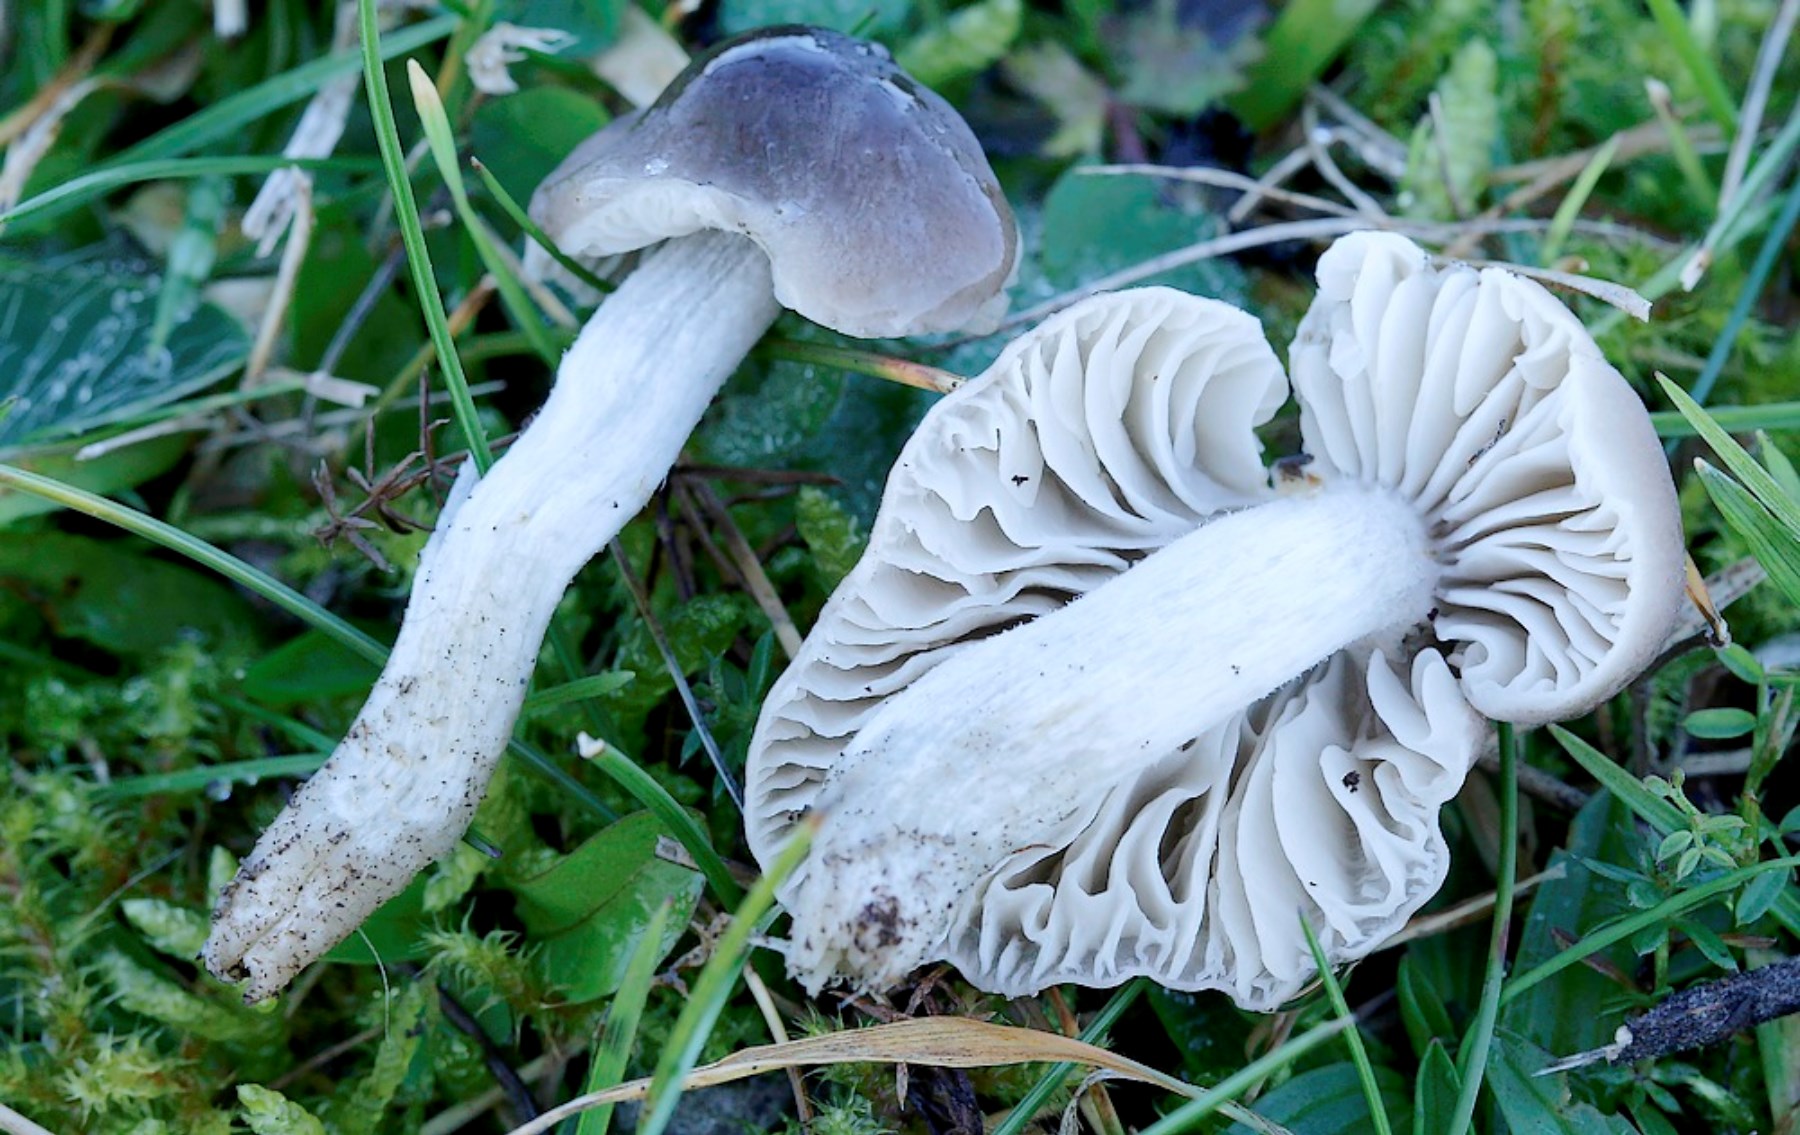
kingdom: Fungi
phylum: Basidiomycota
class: Agaricomycetes
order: Agaricales
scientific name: Agaricales
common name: champignonordenen
